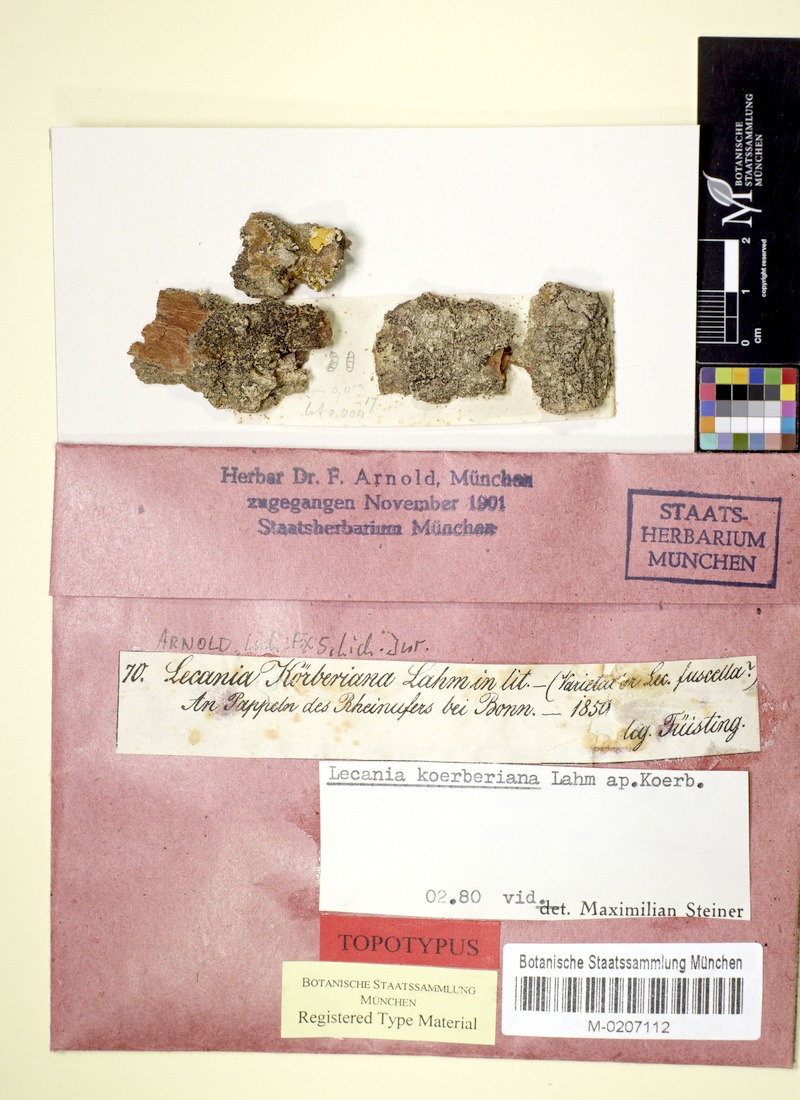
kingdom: Fungi
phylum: Ascomycota
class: Lecanoromycetes
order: Lecanorales
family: Ramalinaceae
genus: Lecania
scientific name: Lecania koerberiana
